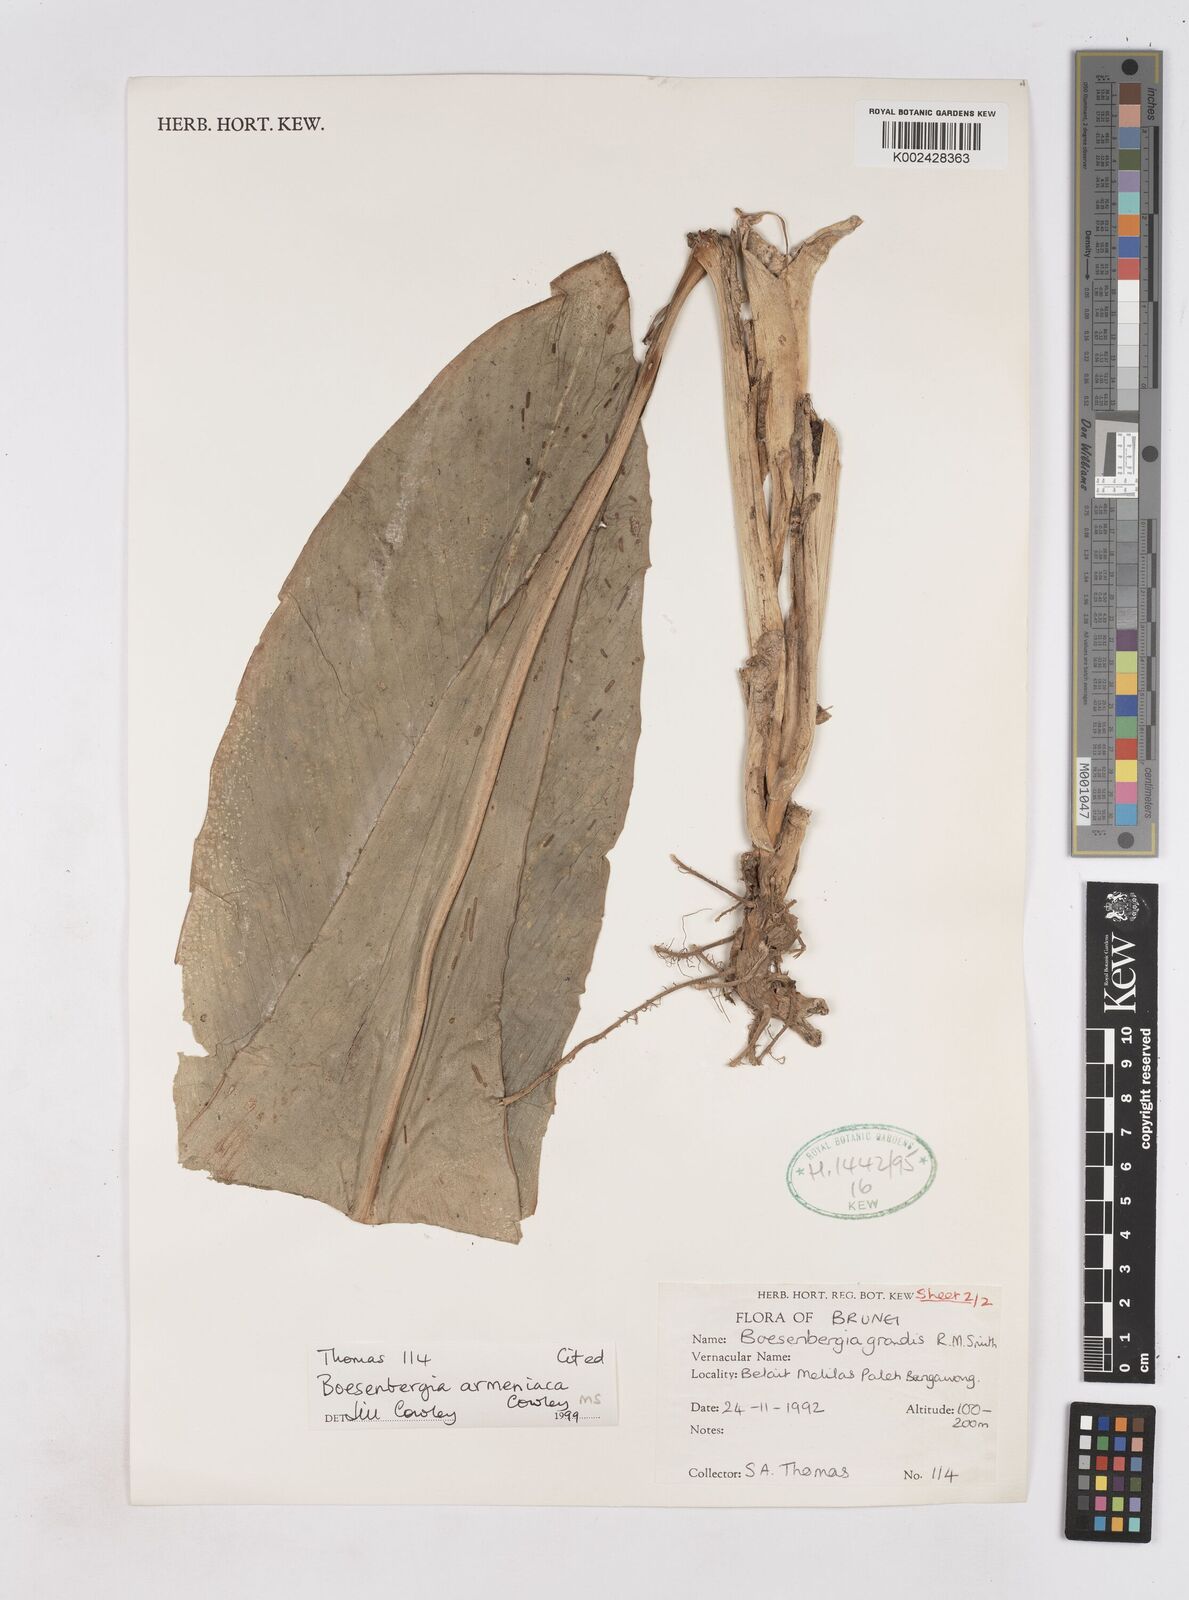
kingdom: Plantae
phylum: Tracheophyta
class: Liliopsida
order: Zingiberales
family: Zingiberaceae
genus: Boesenbergia
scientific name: Boesenbergia armeniaca
